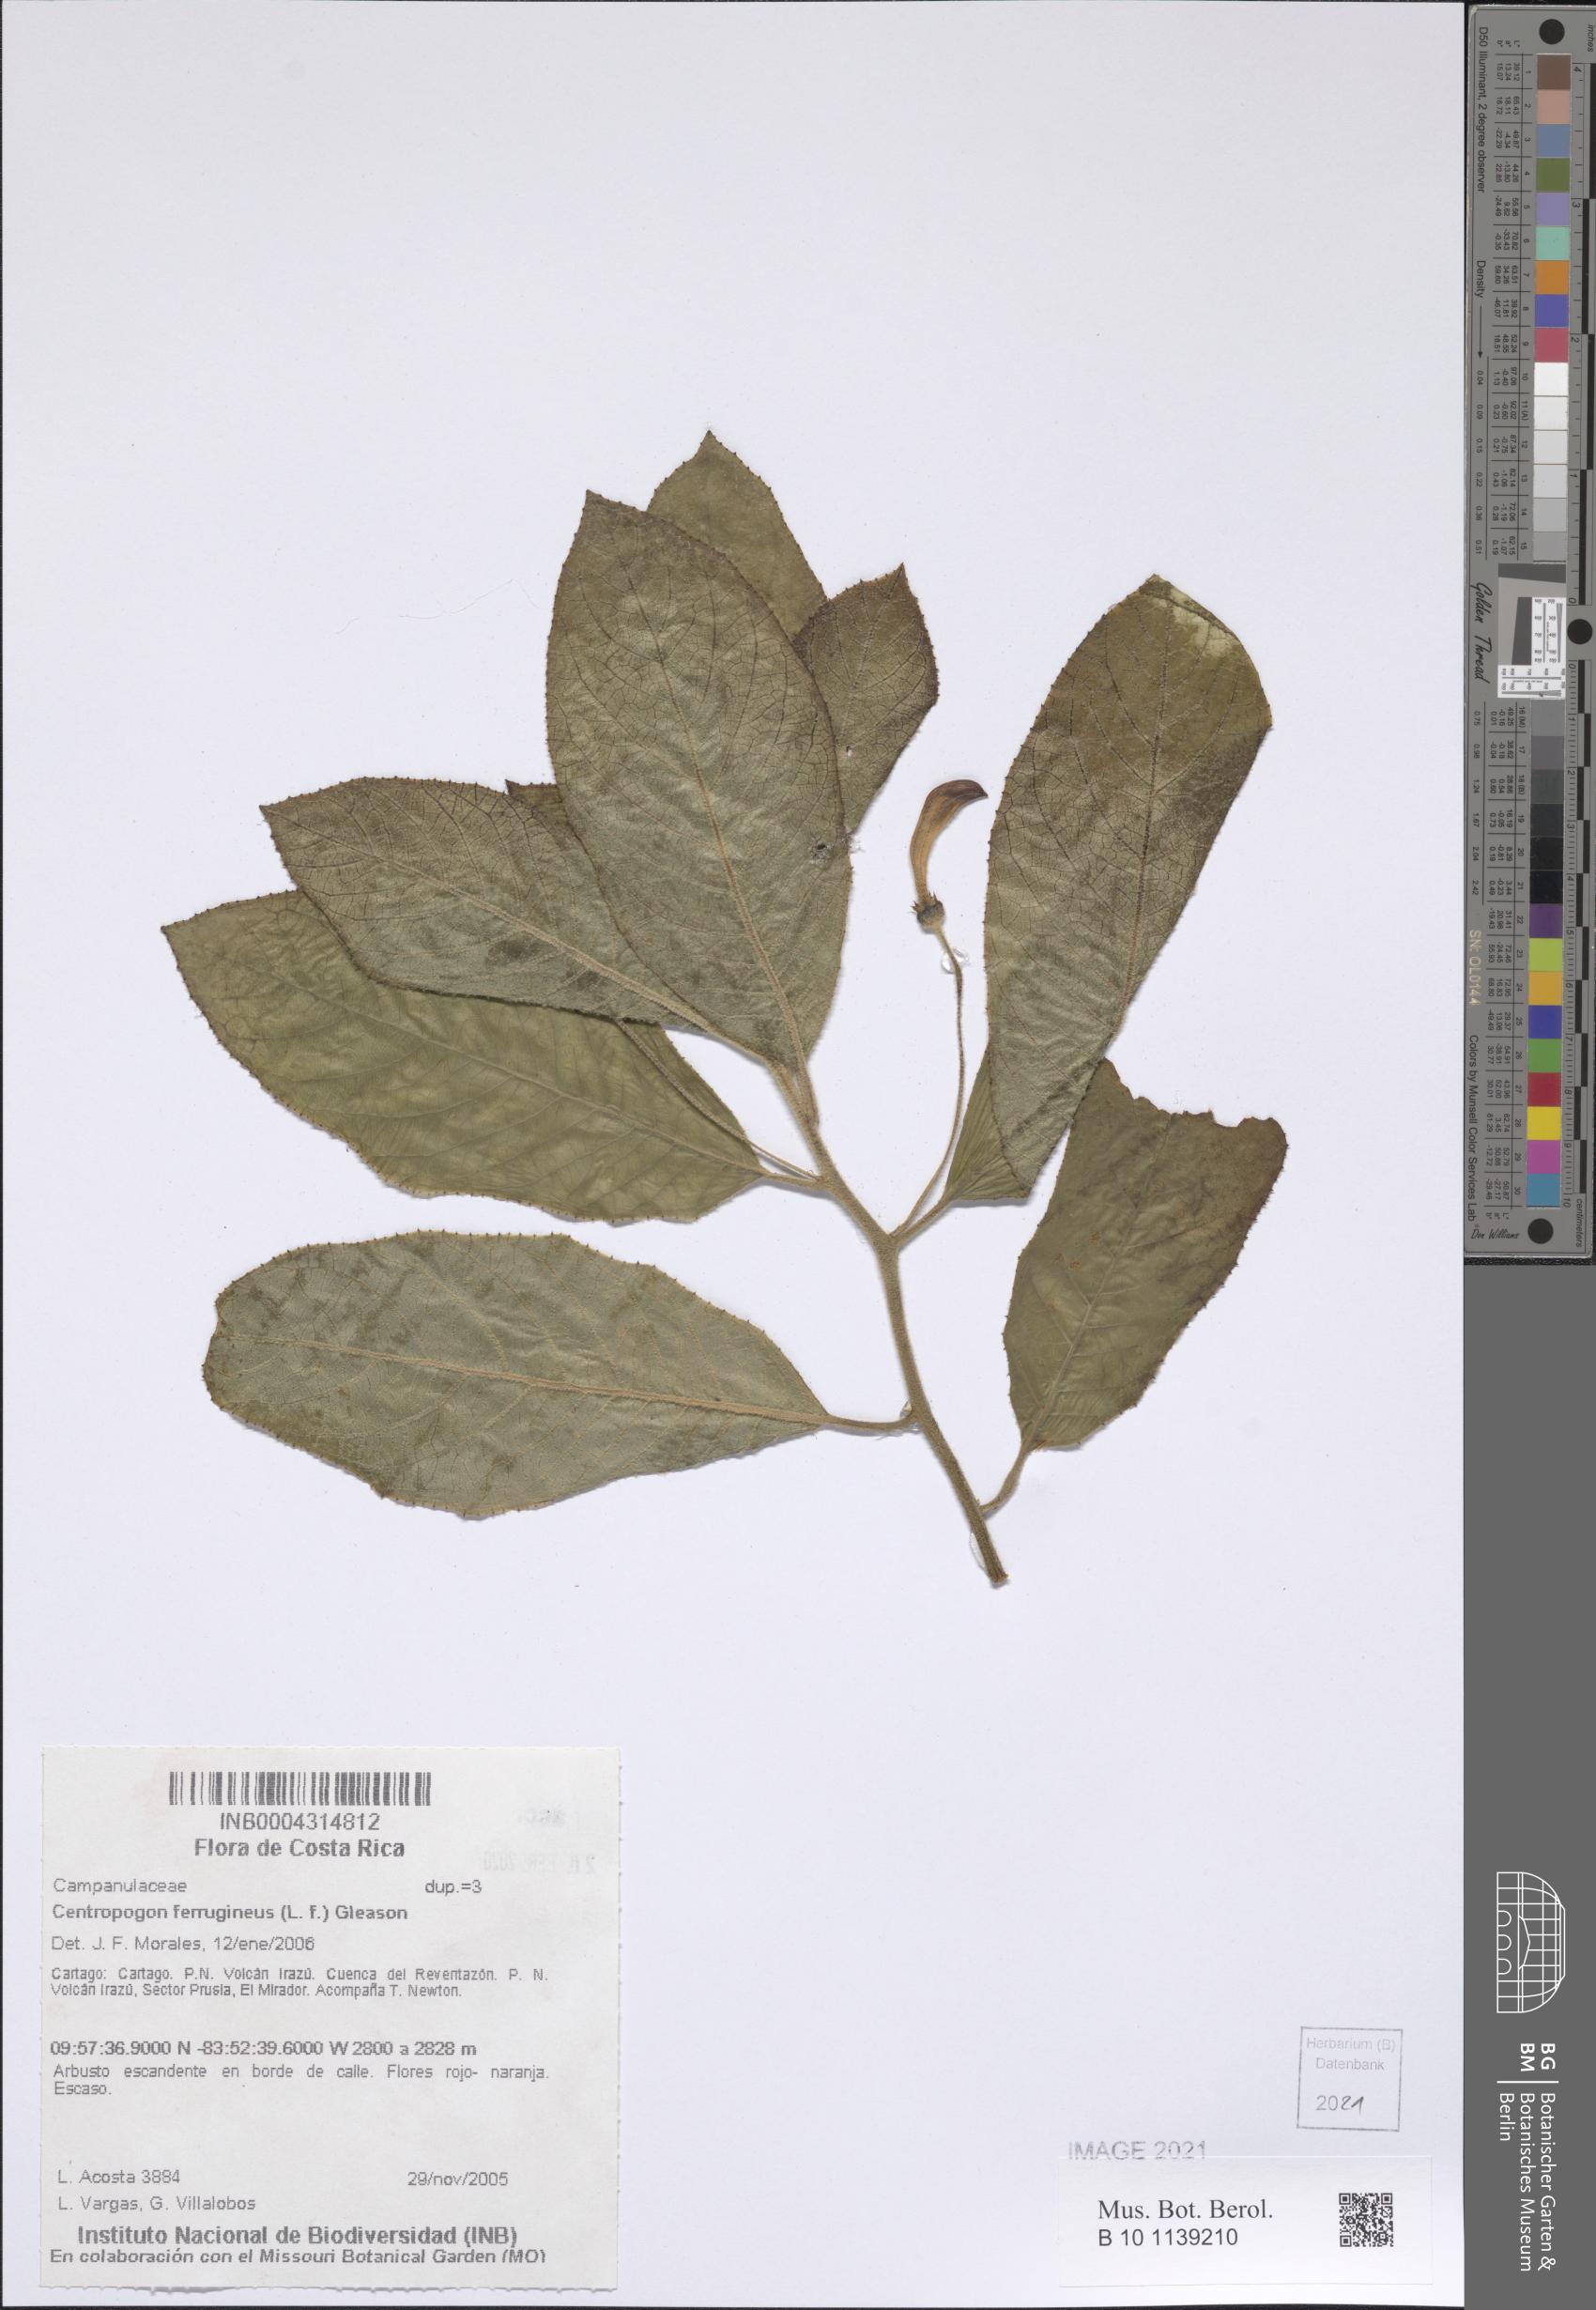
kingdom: Plantae
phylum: Tracheophyta
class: Magnoliopsida
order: Asterales
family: Campanulaceae
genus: Centropogon
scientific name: Centropogon ferrugineus
